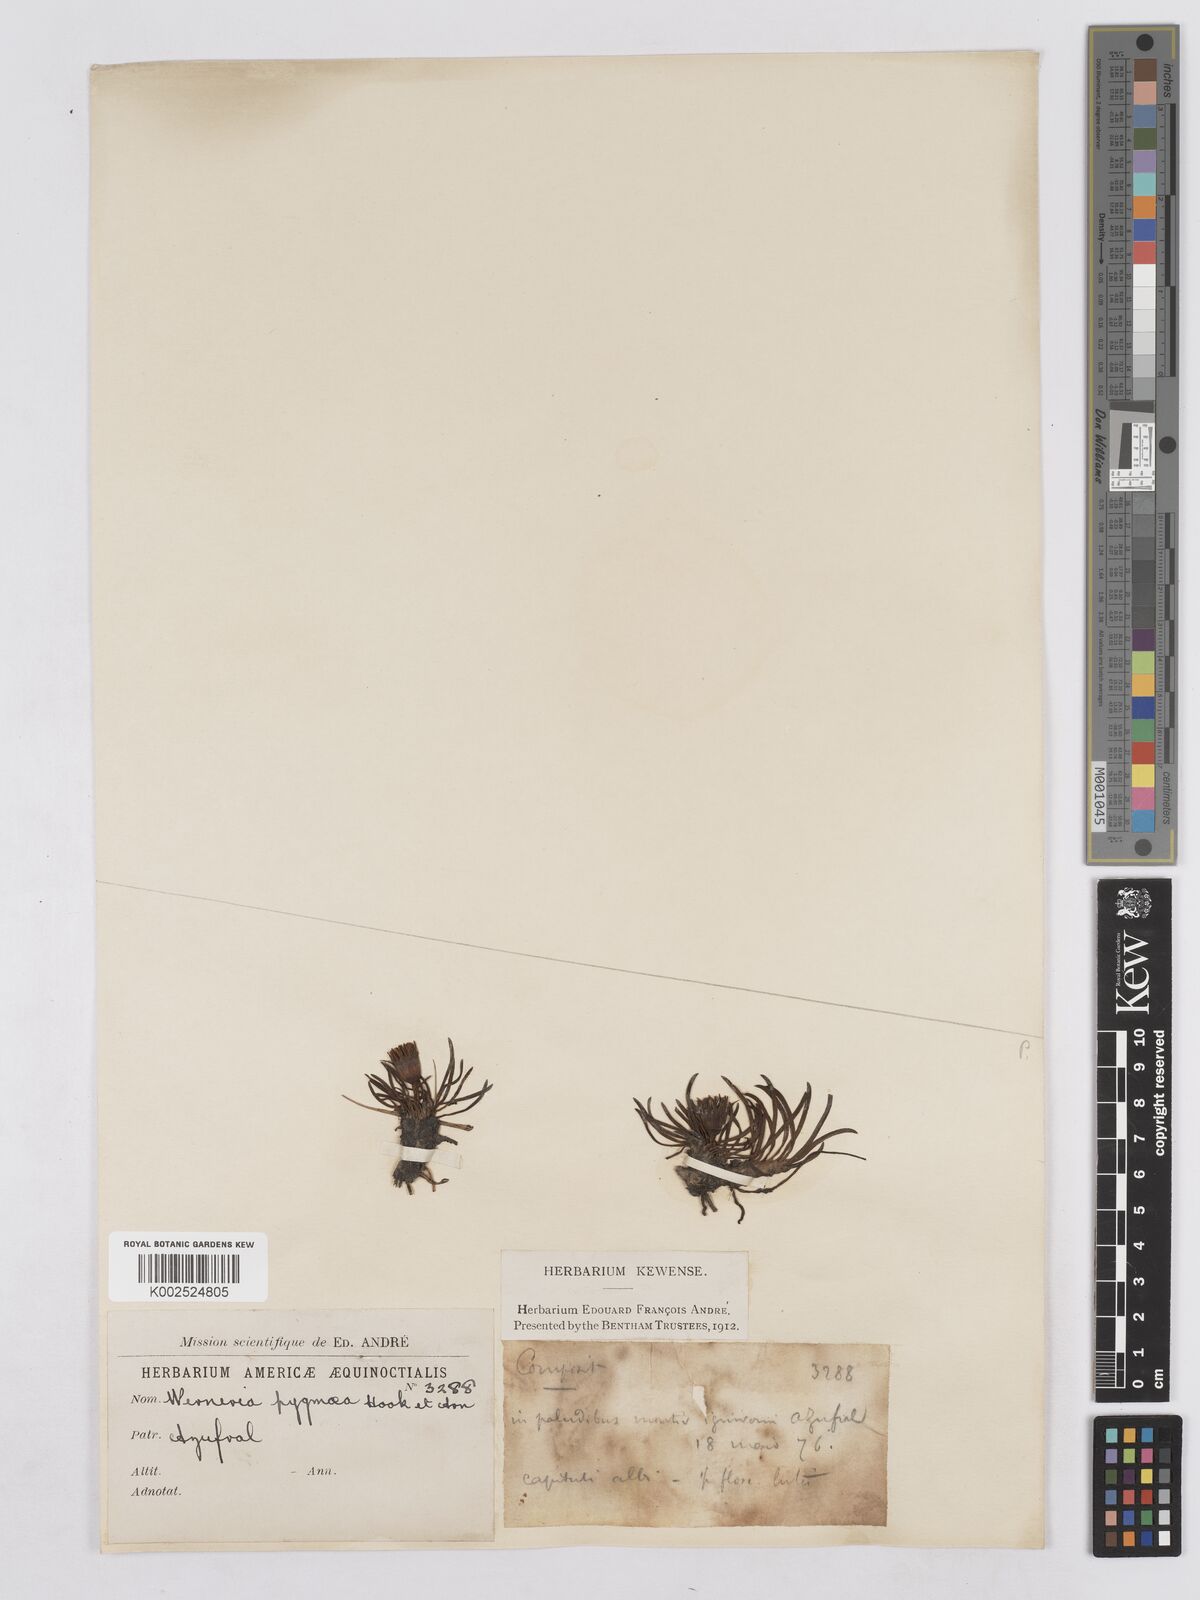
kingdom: Plantae
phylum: Tracheophyta
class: Magnoliopsida
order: Asterales
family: Asteraceae
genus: Rockhausenia
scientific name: Rockhausenia pygmaea
